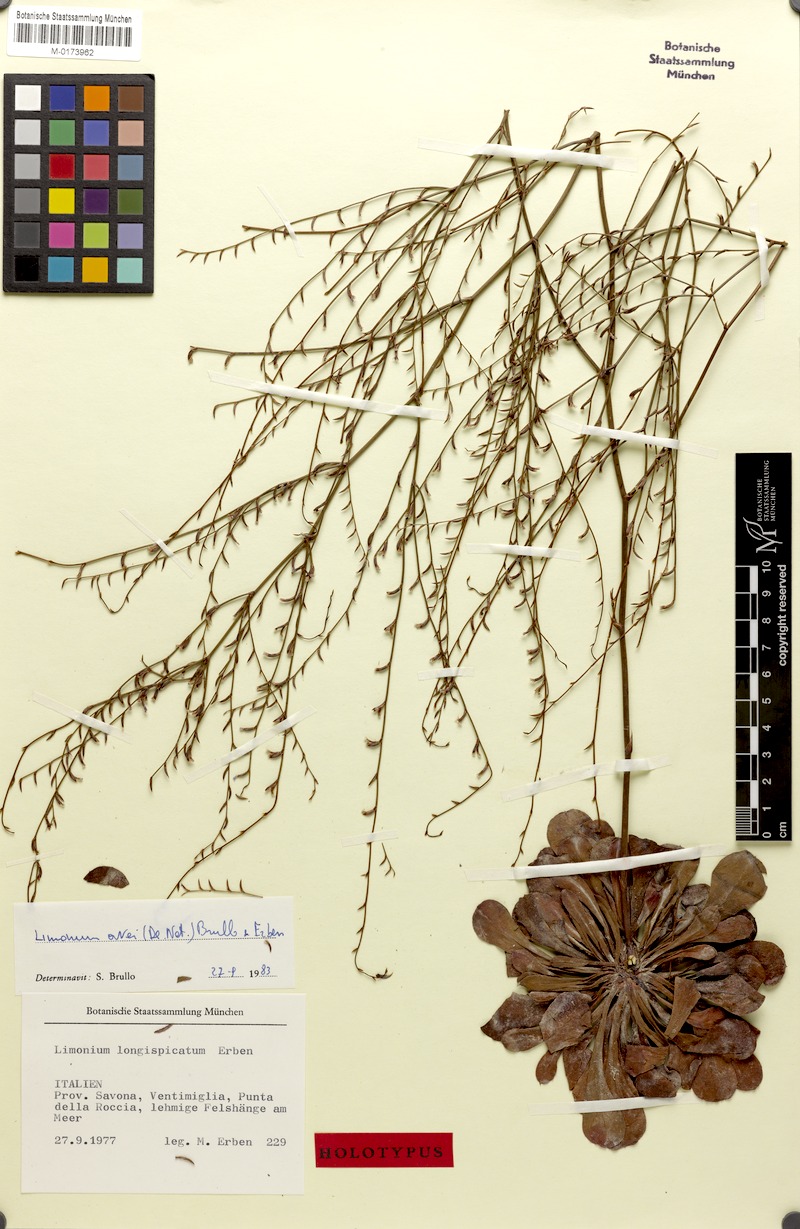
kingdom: Plantae
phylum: Tracheophyta
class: Magnoliopsida
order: Caryophyllales
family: Plumbaginaceae
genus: Limonium
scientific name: Limonium avei
